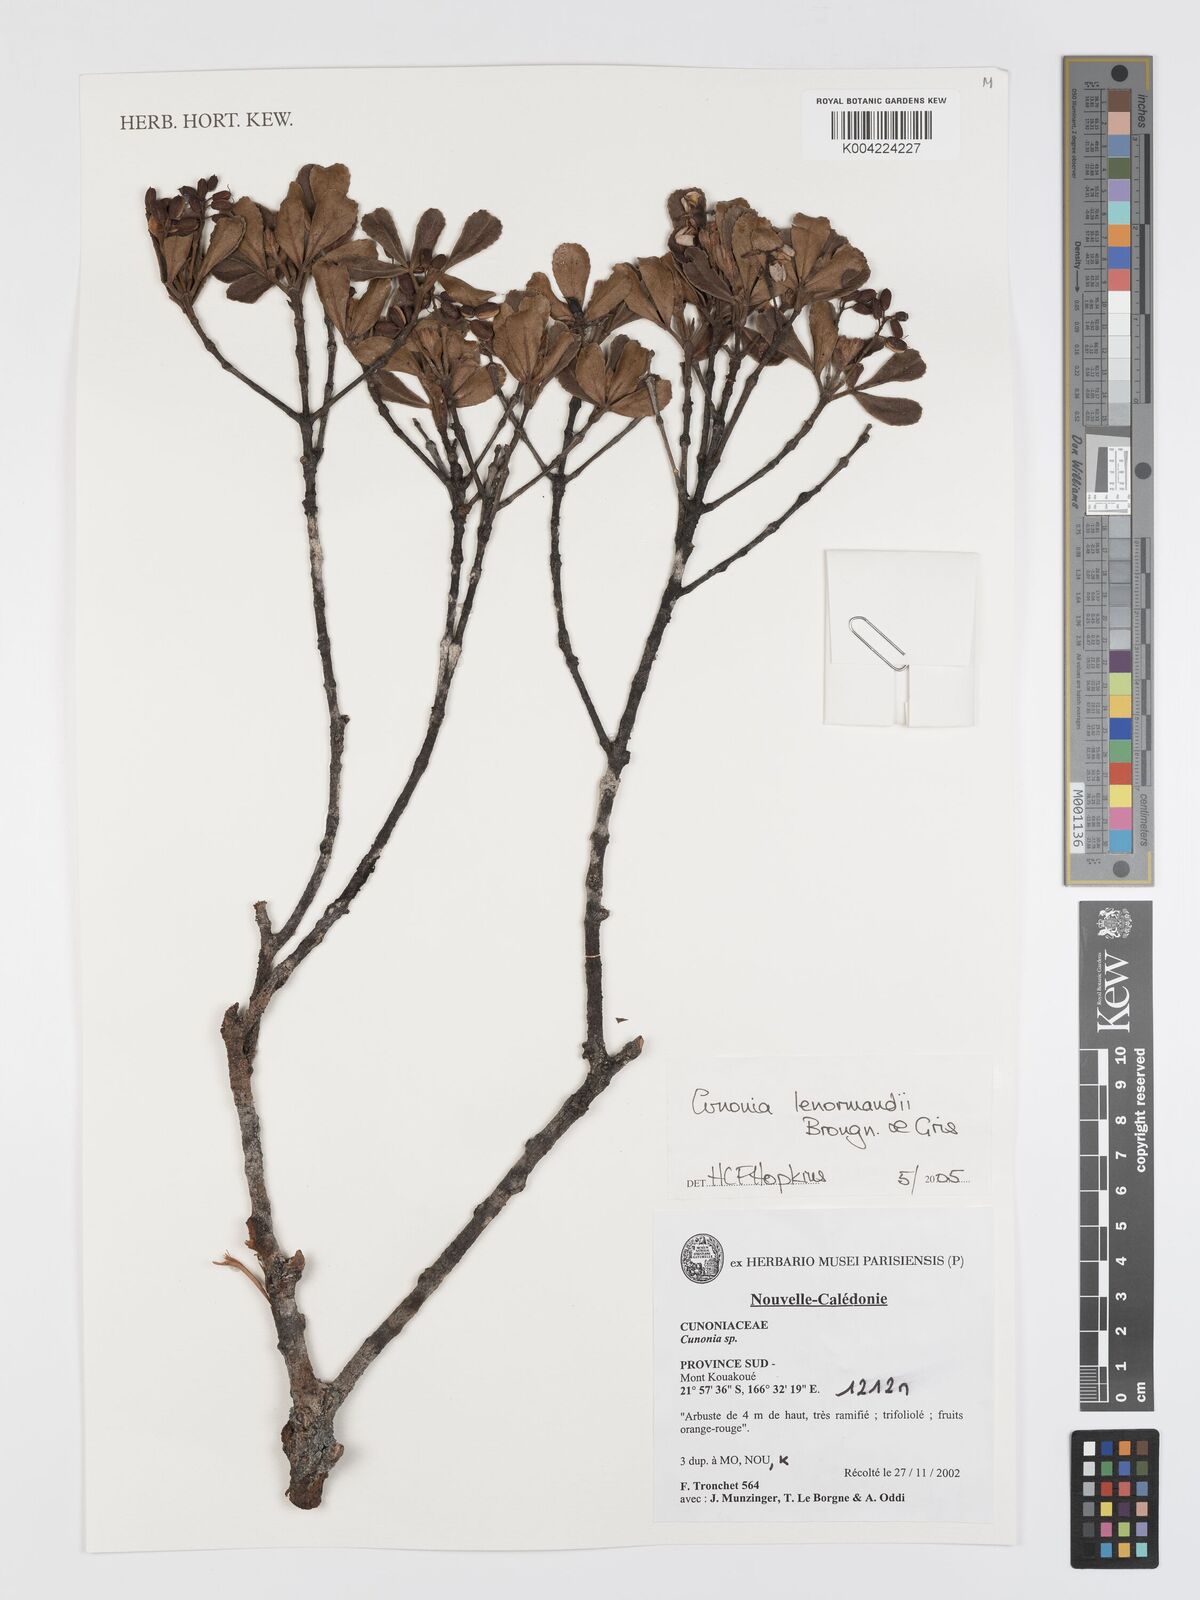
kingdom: Plantae
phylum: Tracheophyta
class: Magnoliopsida
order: Oxalidales
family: Cunoniaceae
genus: Cunonia
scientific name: Cunonia lenormandii
